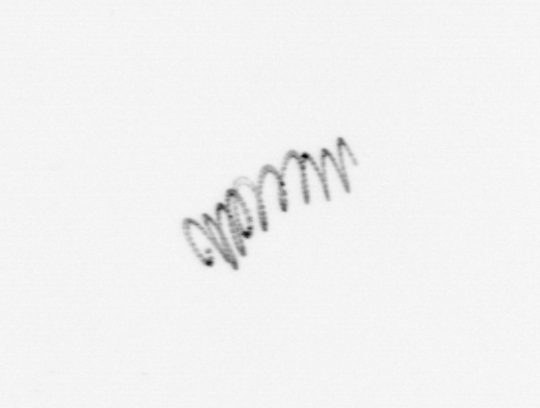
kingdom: Chromista
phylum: Ochrophyta
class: Bacillariophyceae
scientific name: Bacillariophyceae
